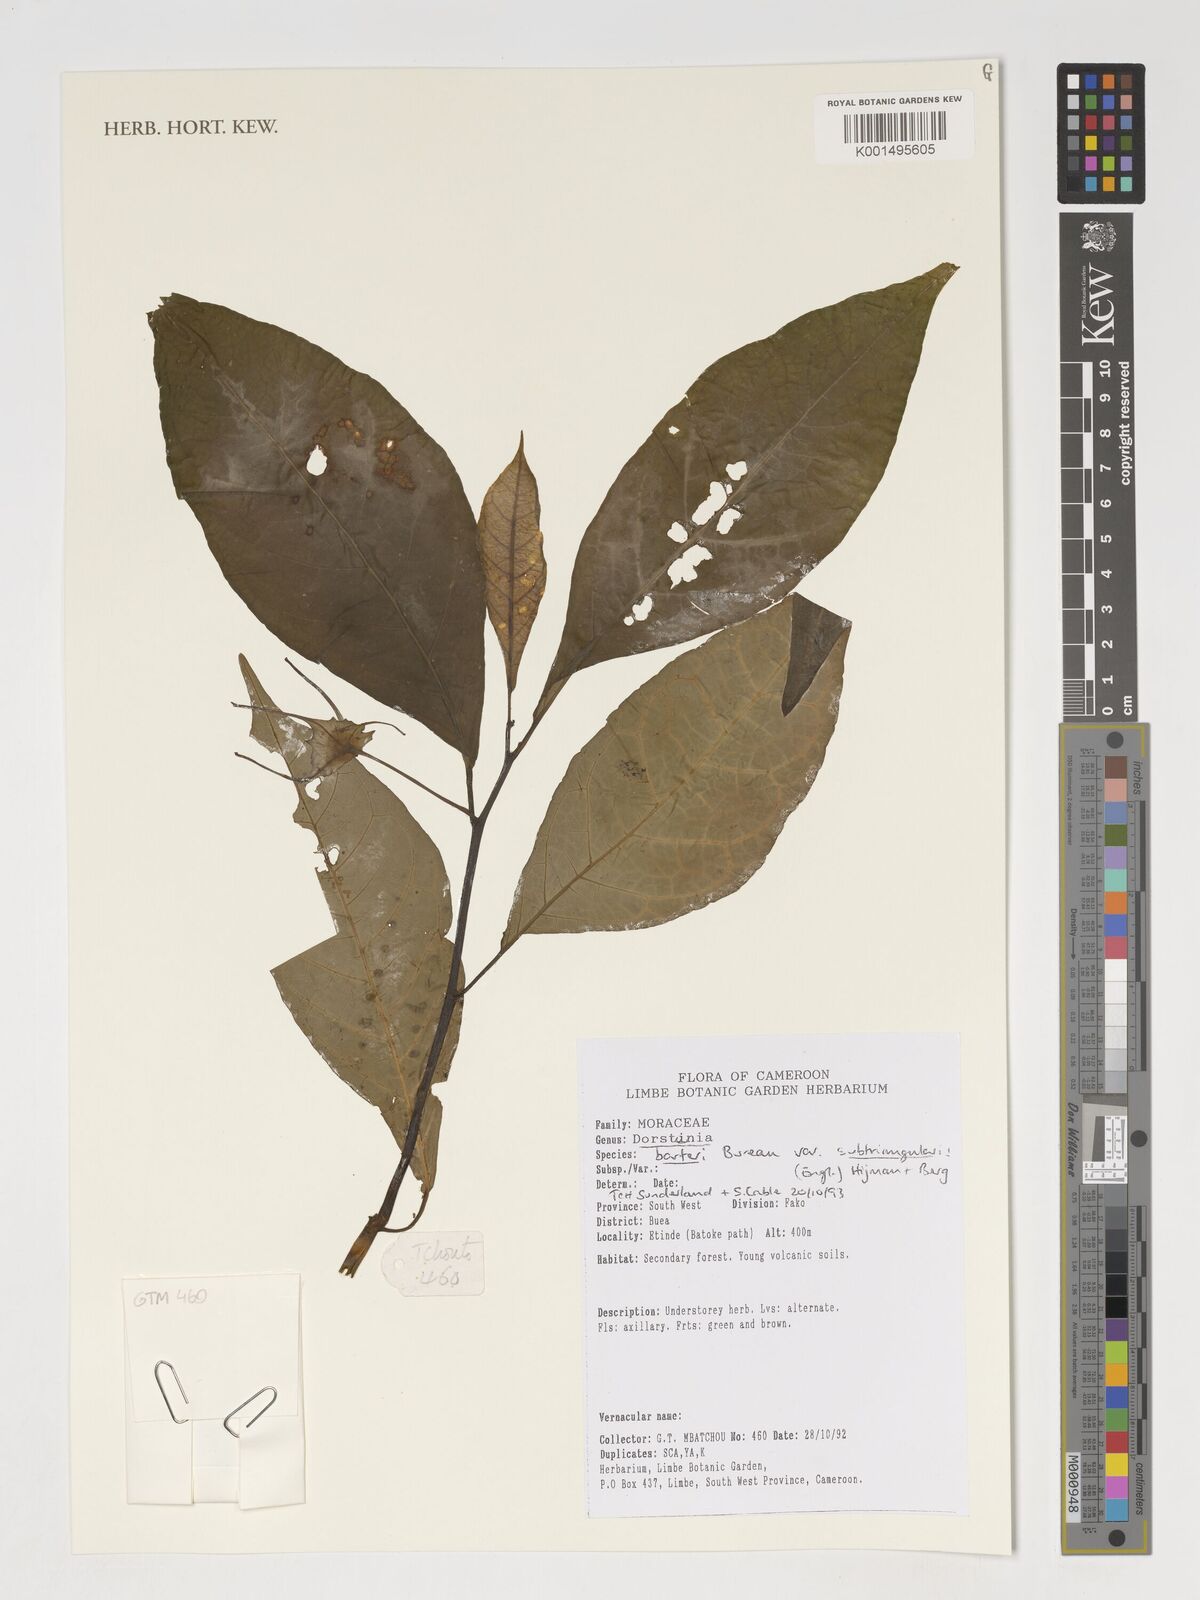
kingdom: Plantae
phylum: Tracheophyta
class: Magnoliopsida
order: Rosales
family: Moraceae
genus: Dorstenia
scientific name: Dorstenia barteri
